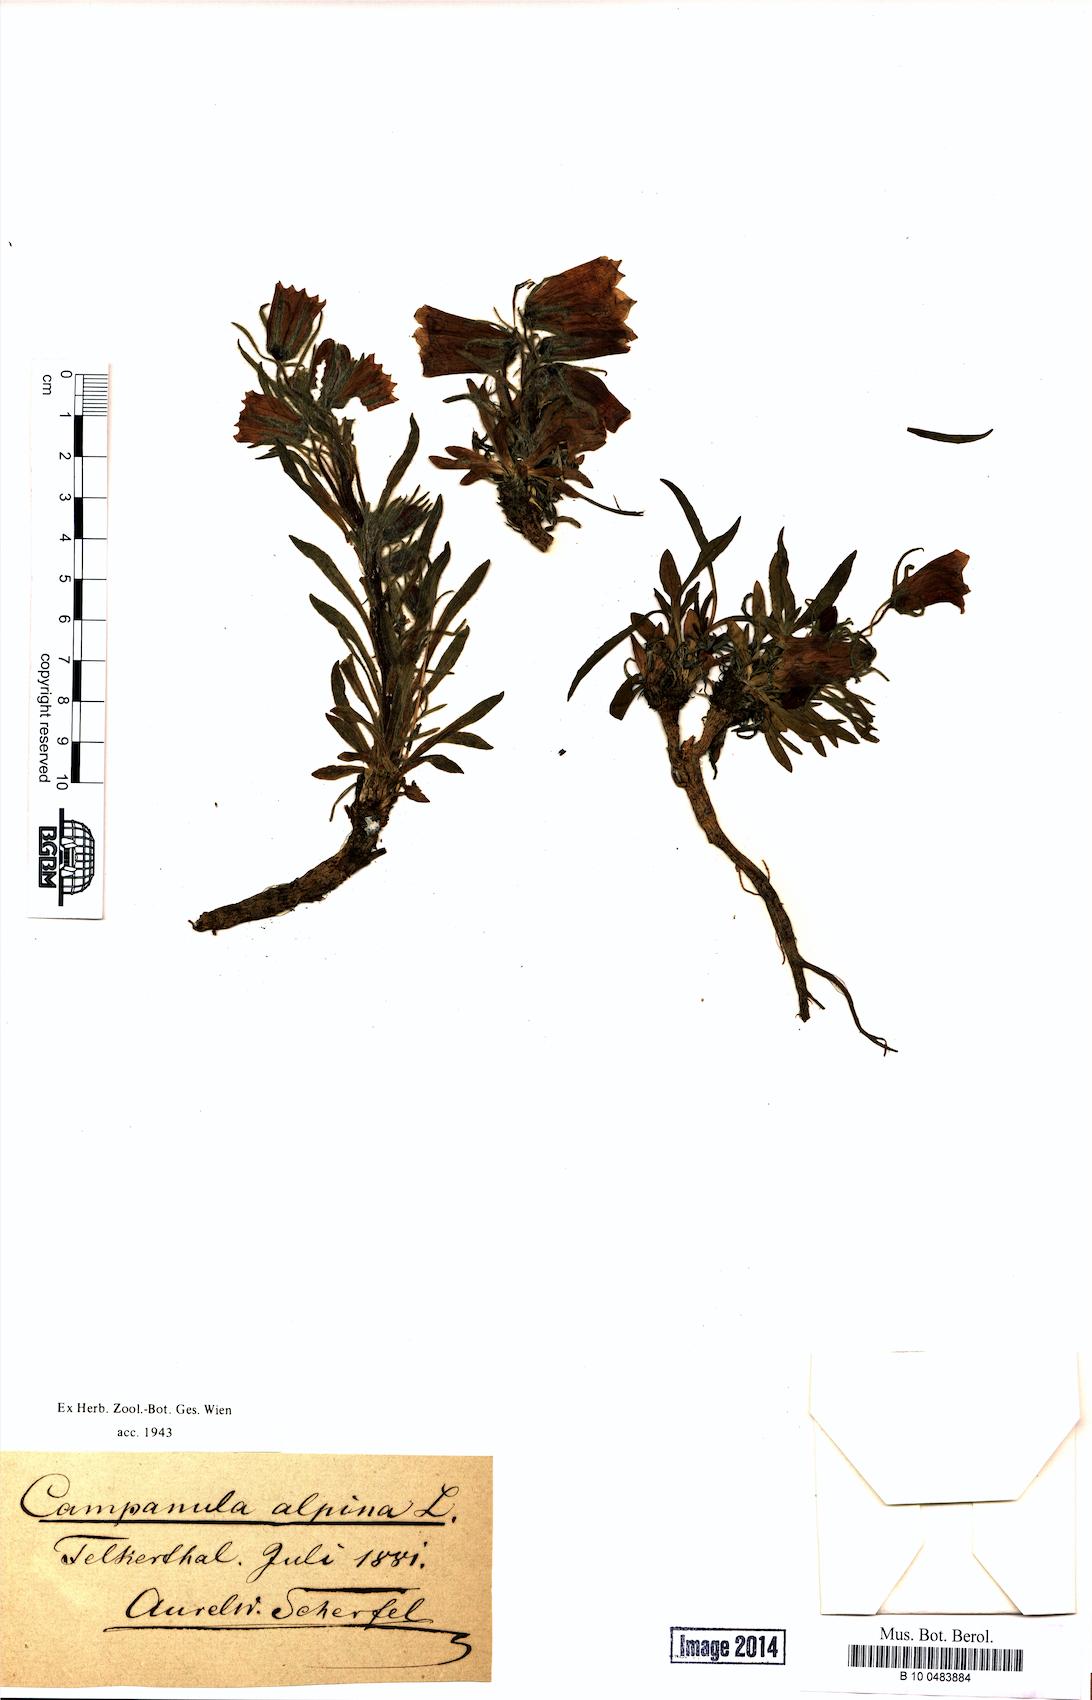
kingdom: Plantae
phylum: Tracheophyta
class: Magnoliopsida
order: Asterales
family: Campanulaceae
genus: Campanula
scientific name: Campanula alpina
